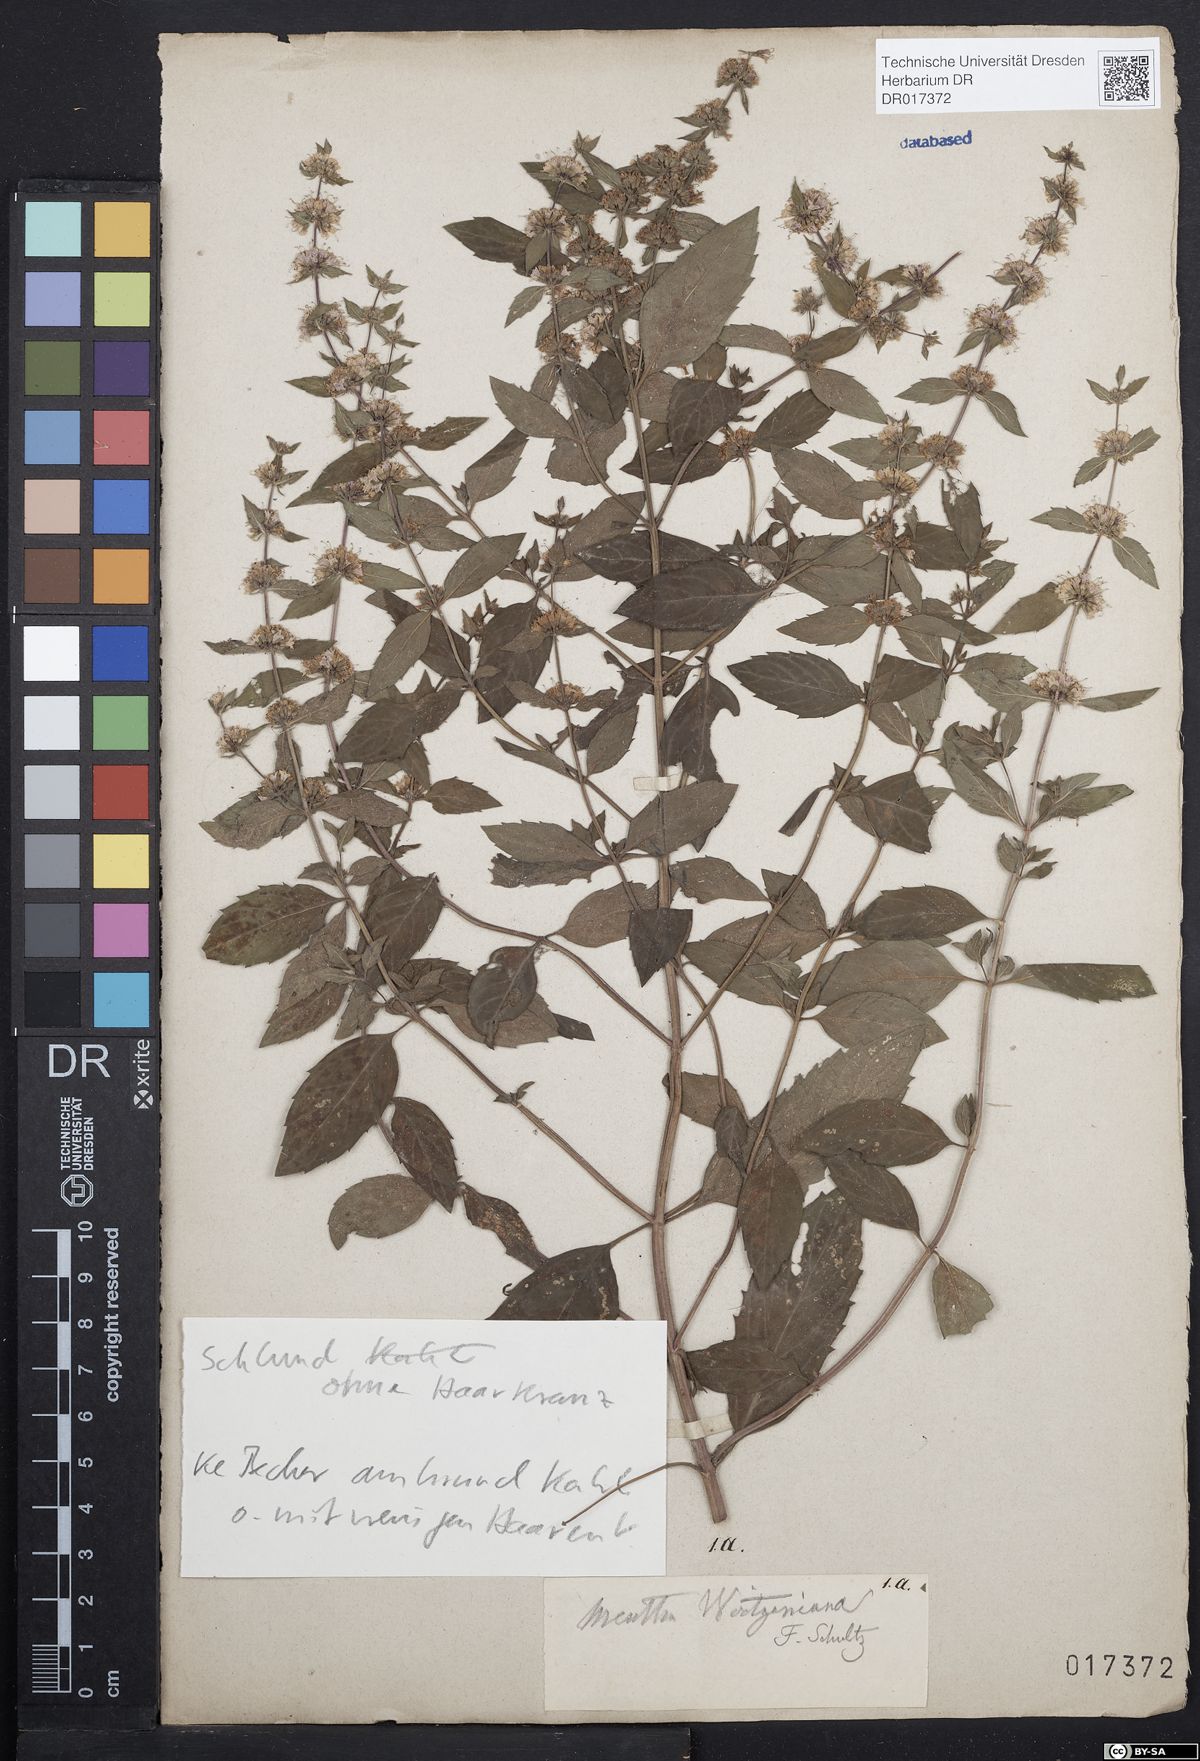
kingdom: Plantae
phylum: Tracheophyta
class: Magnoliopsida
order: Lamiales
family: Lamiaceae
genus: Mentha
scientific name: Mentha wirtgeniana
